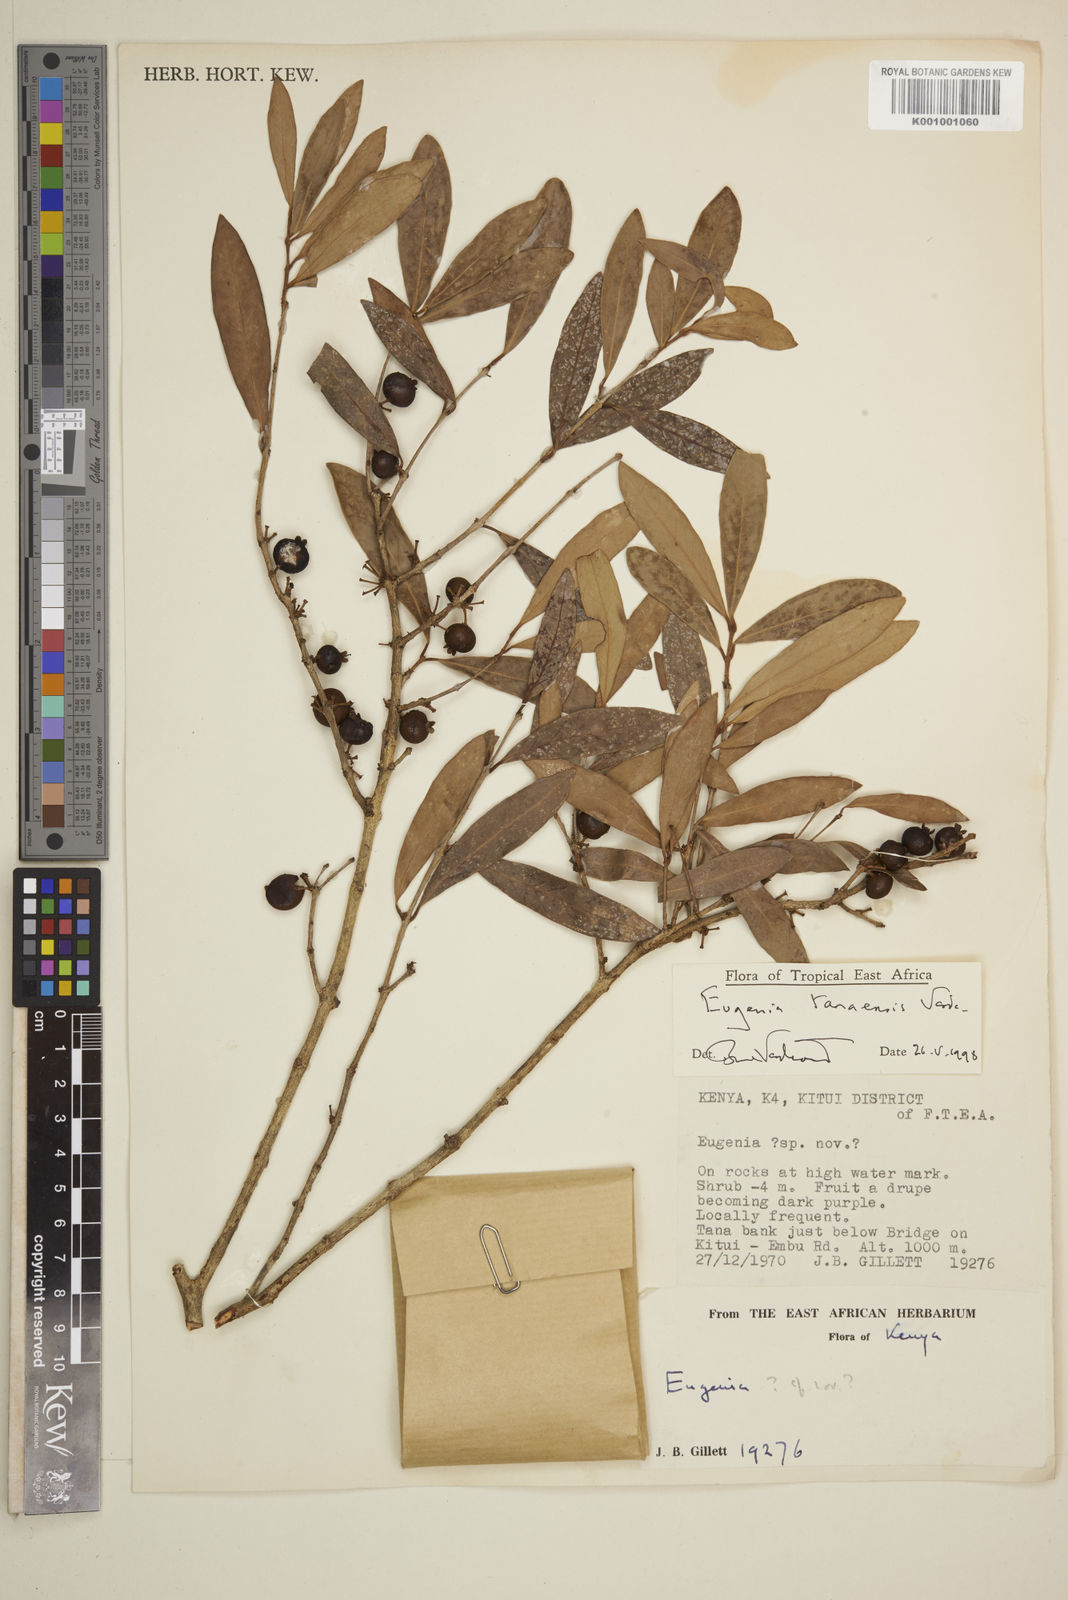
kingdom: Plantae
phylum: Tracheophyta
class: Magnoliopsida
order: Myrtales
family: Myrtaceae
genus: Eugenia
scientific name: Eugenia tanaensis
